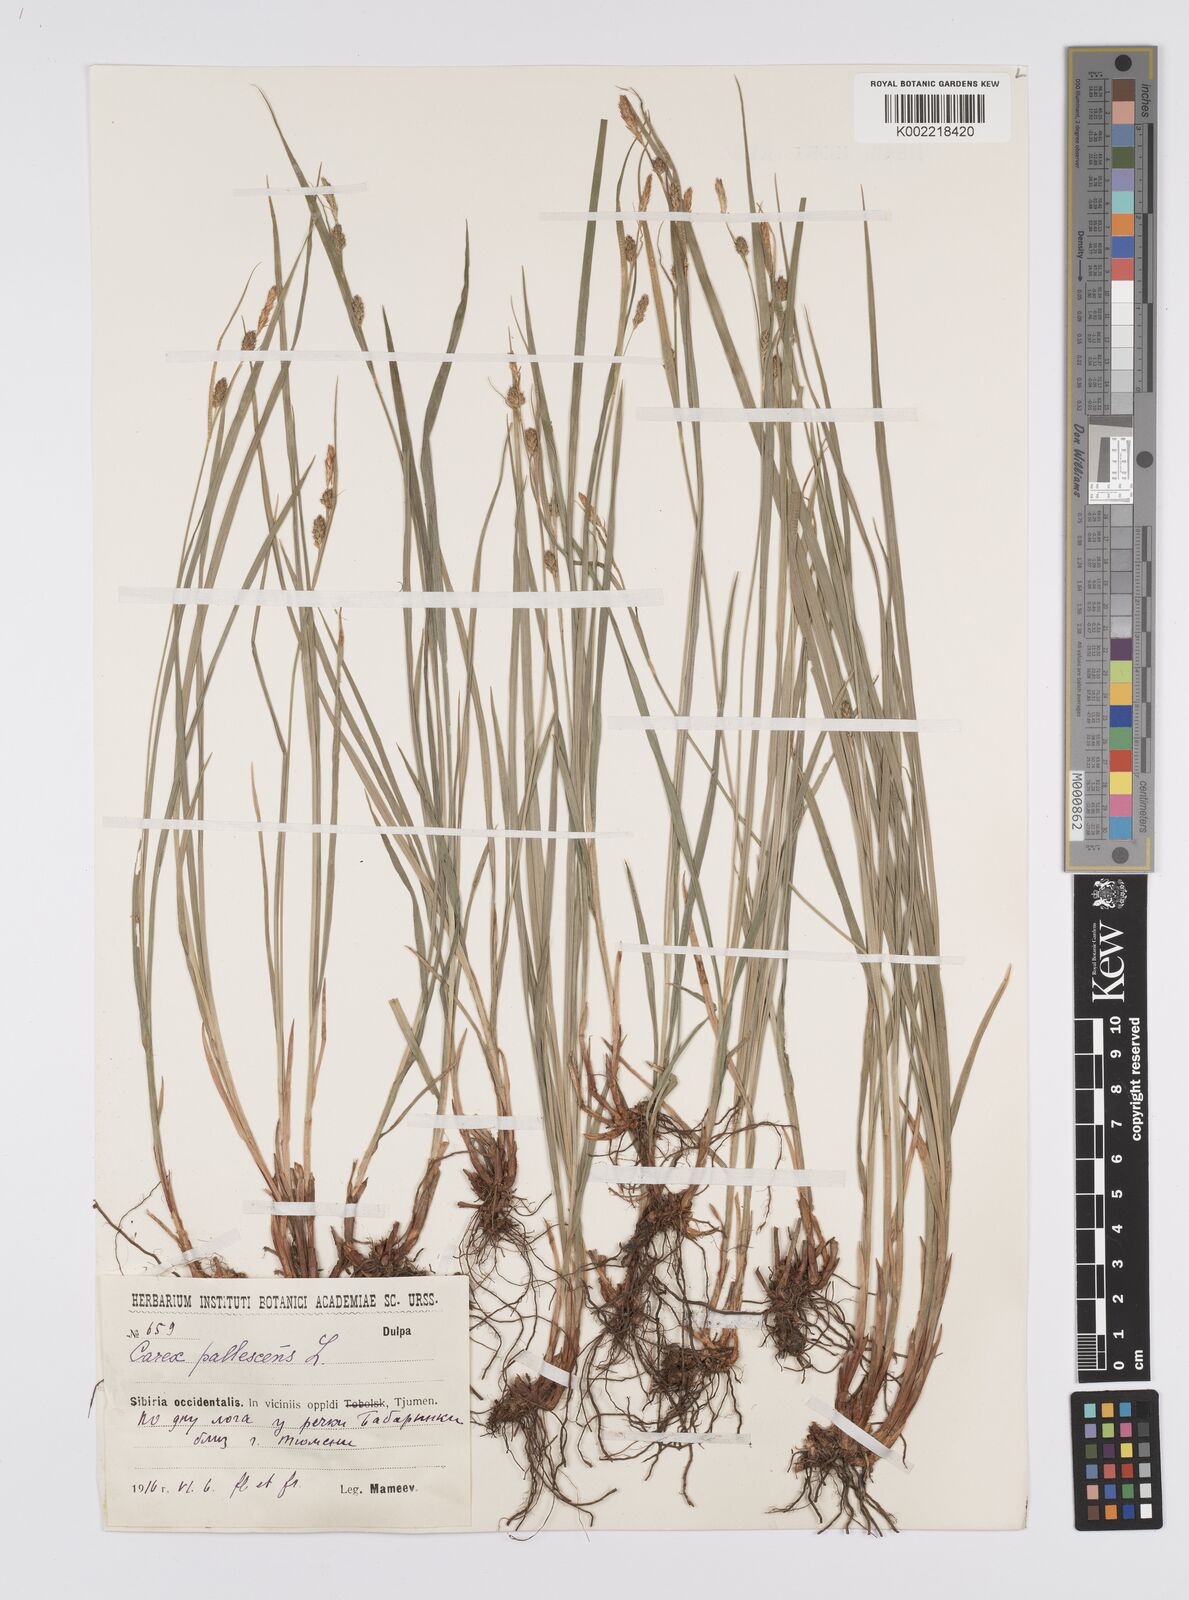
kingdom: Plantae
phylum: Tracheophyta
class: Liliopsida
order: Poales
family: Cyperaceae
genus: Carex
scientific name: Carex pallescens
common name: Pale sedge
